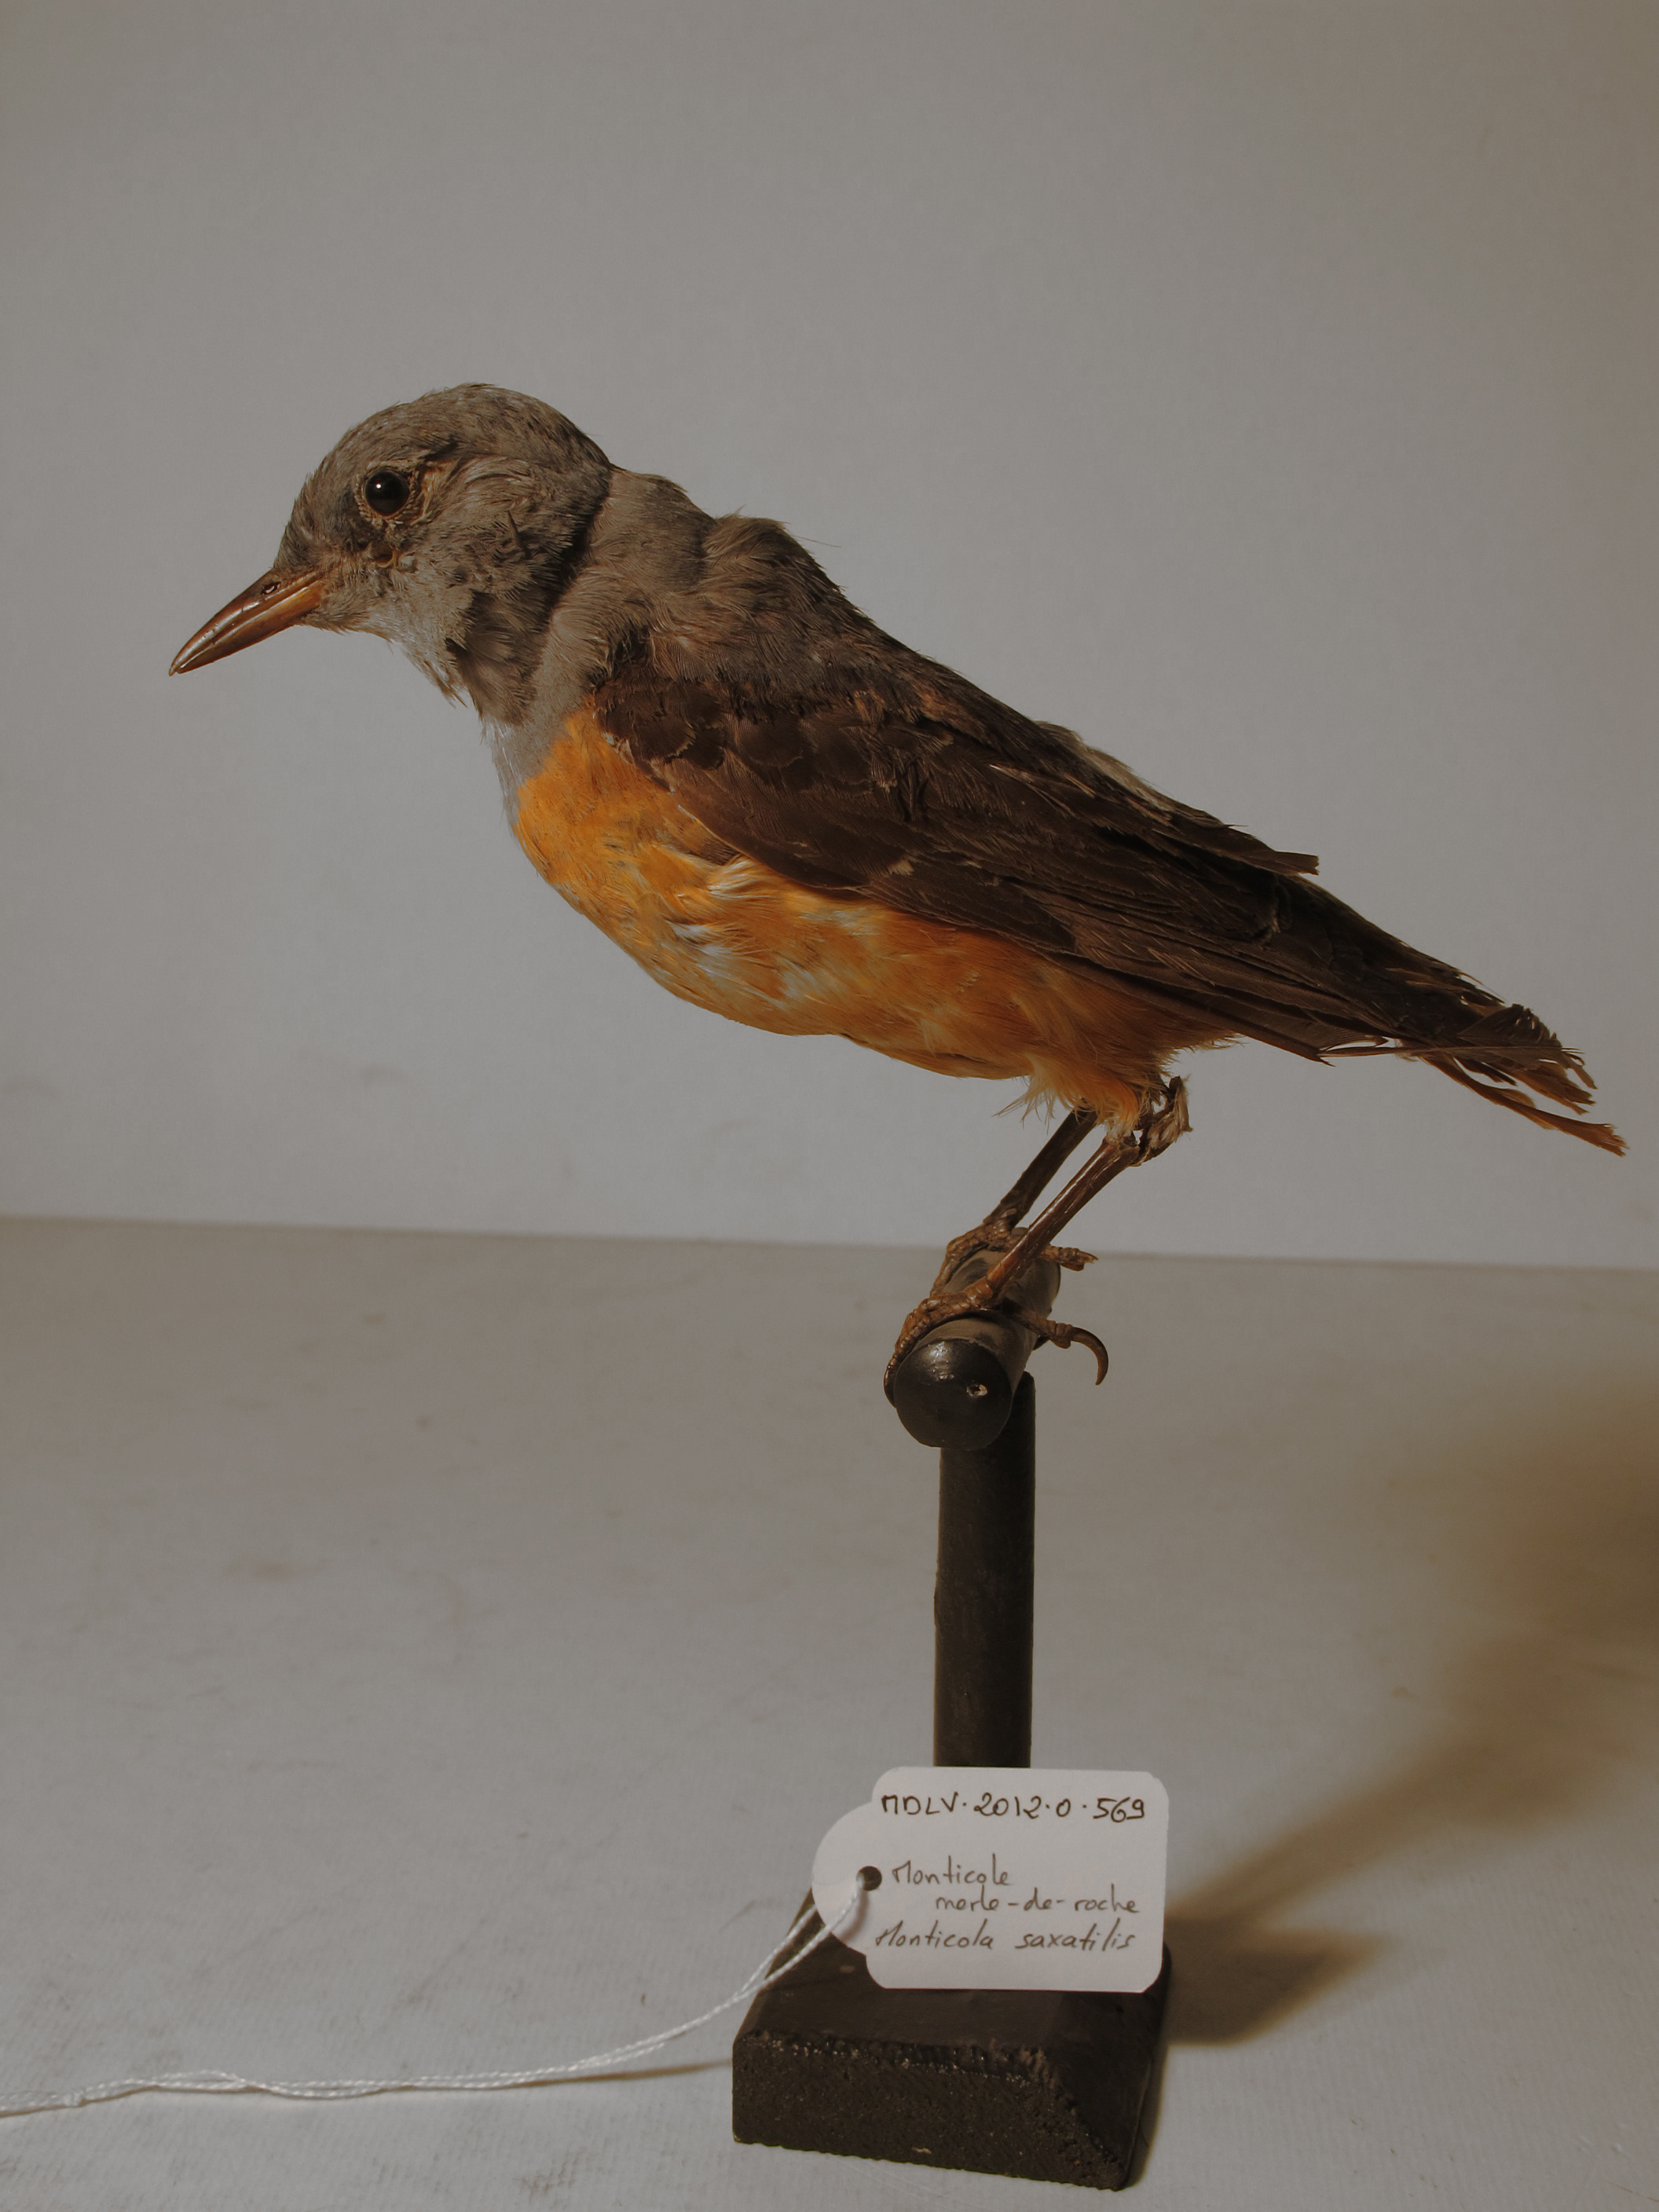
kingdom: Animalia
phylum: Chordata
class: Aves
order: Passeriformes
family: Muscicapidae
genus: Monticola
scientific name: Monticola saxatilis
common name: Common Rock-thrush
